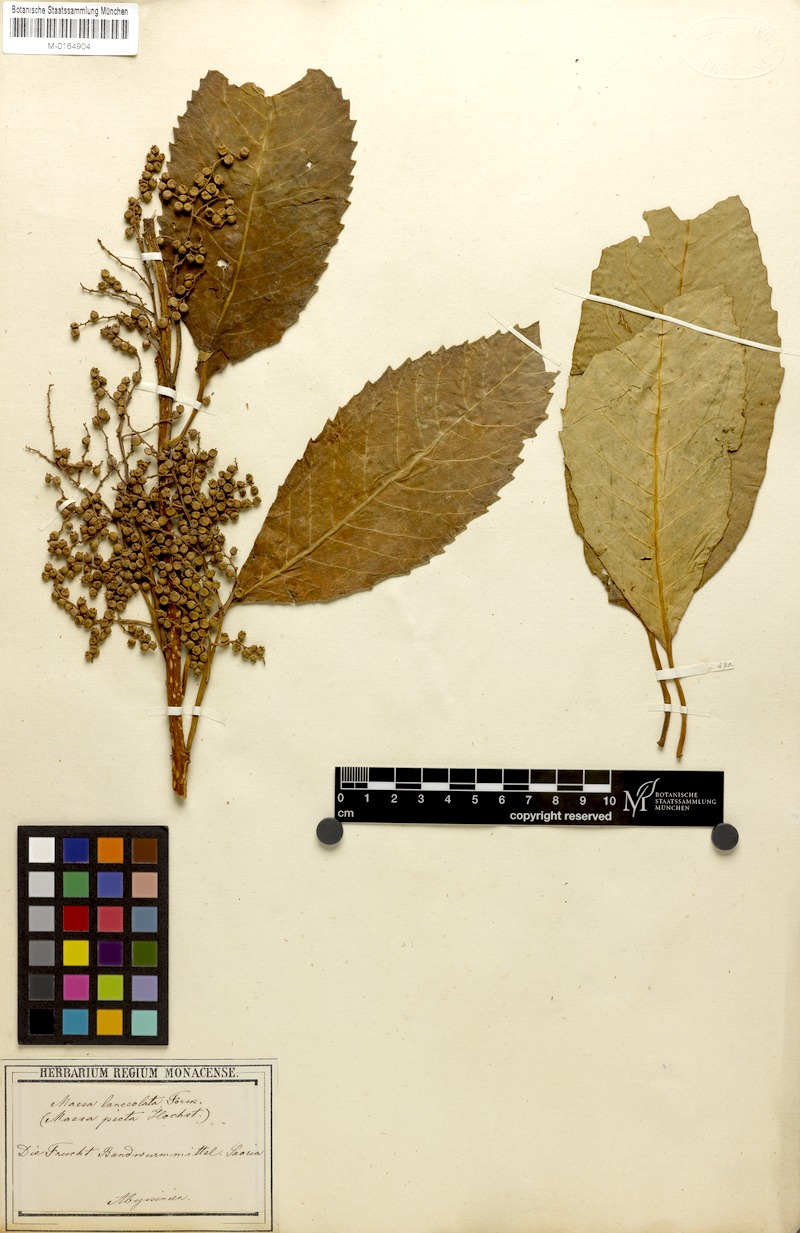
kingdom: Plantae
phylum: Tracheophyta
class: Magnoliopsida
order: Ericales
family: Primulaceae
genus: Maesa
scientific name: Maesa lanceolata
